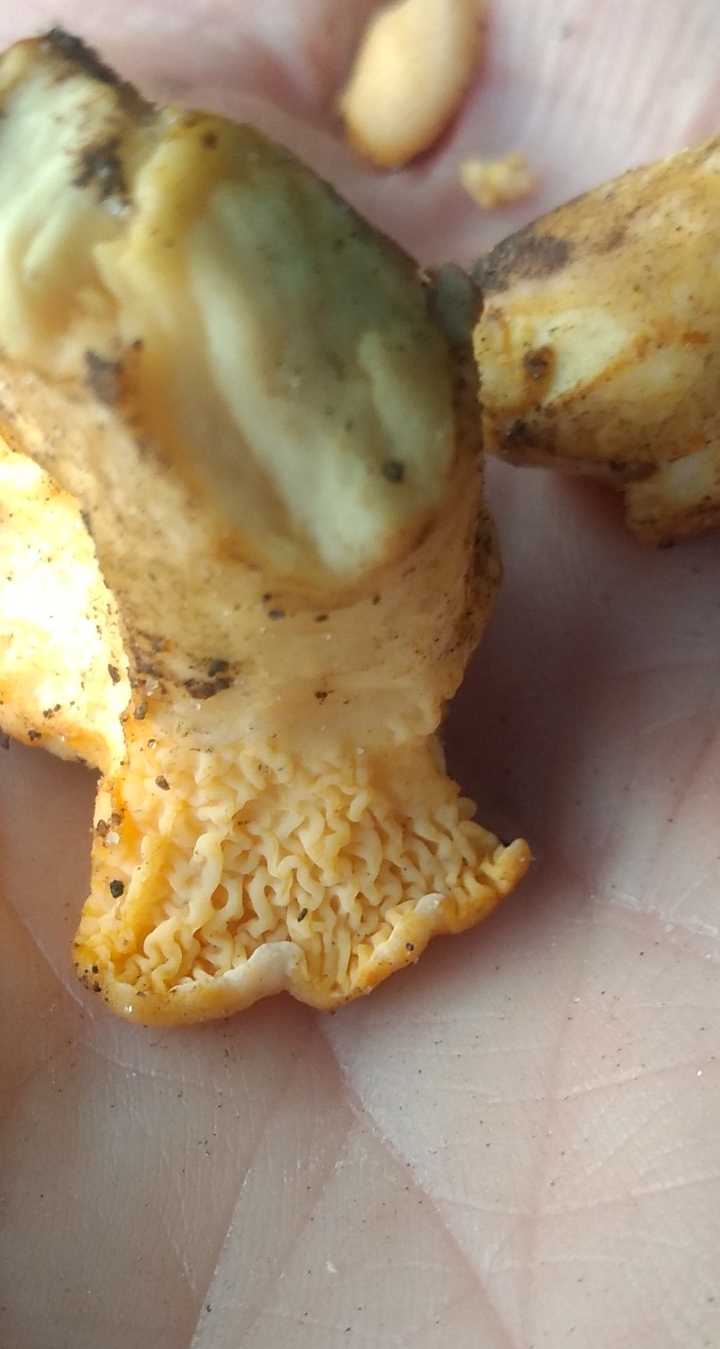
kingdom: Fungi
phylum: Basidiomycota
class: Agaricomycetes
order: Cantharellales
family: Hydnaceae
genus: Cantharellus
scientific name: Cantharellus pallens
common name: bleg kantarel
